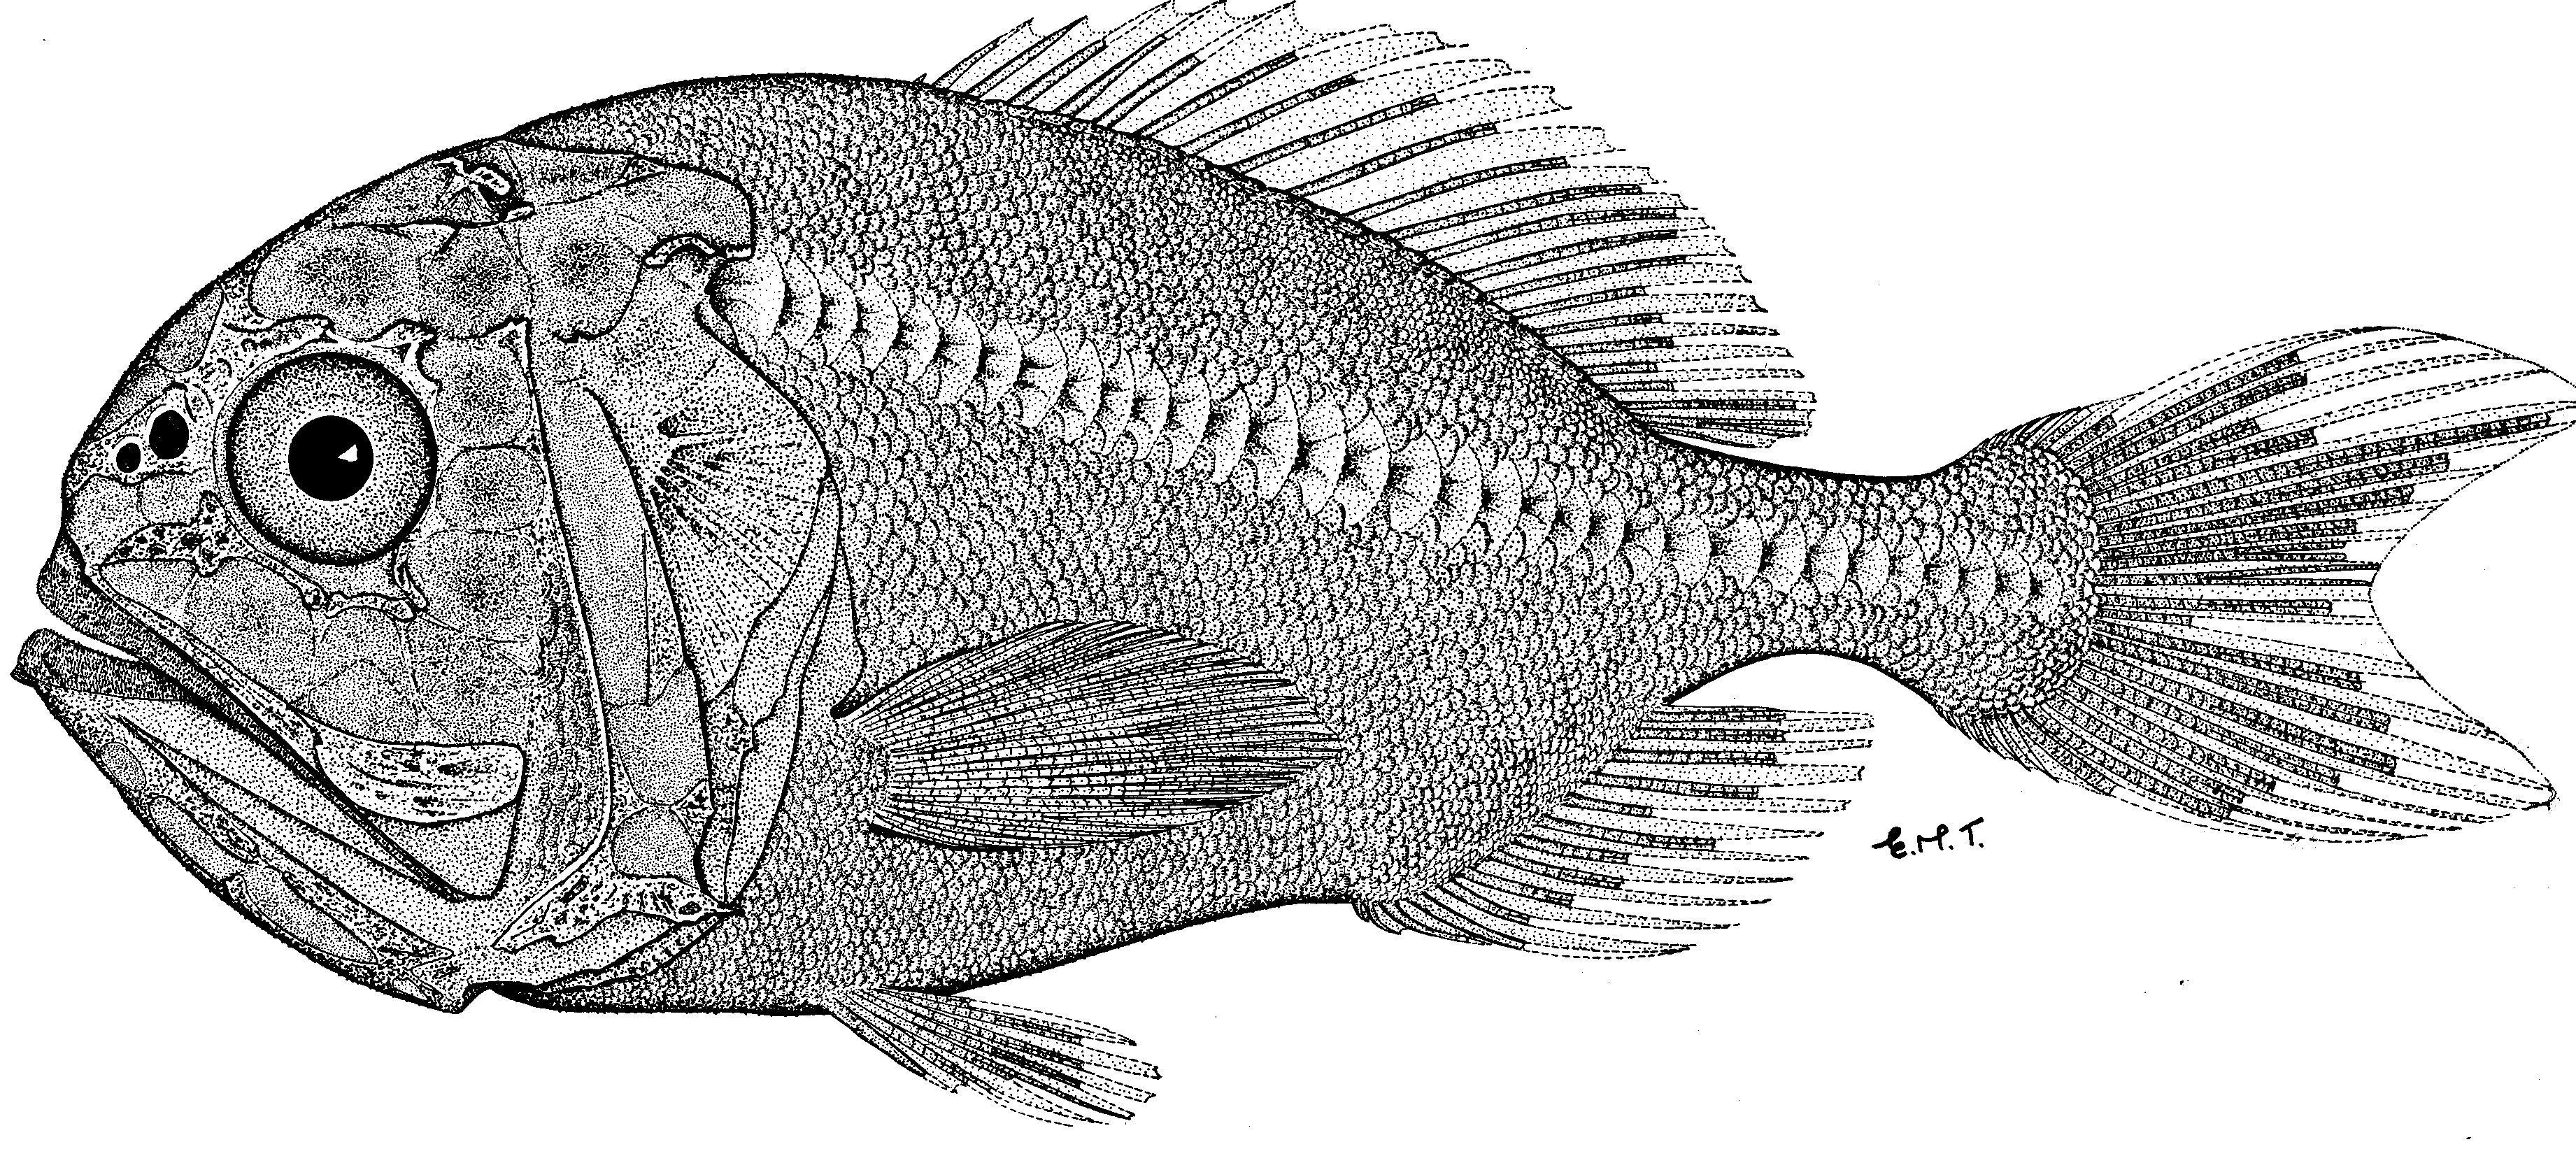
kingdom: Animalia
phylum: Chordata
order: Beryciformes
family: Trachichthyidae
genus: Hoplostethus
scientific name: Hoplostethus atlanticus
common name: Orange roughy
